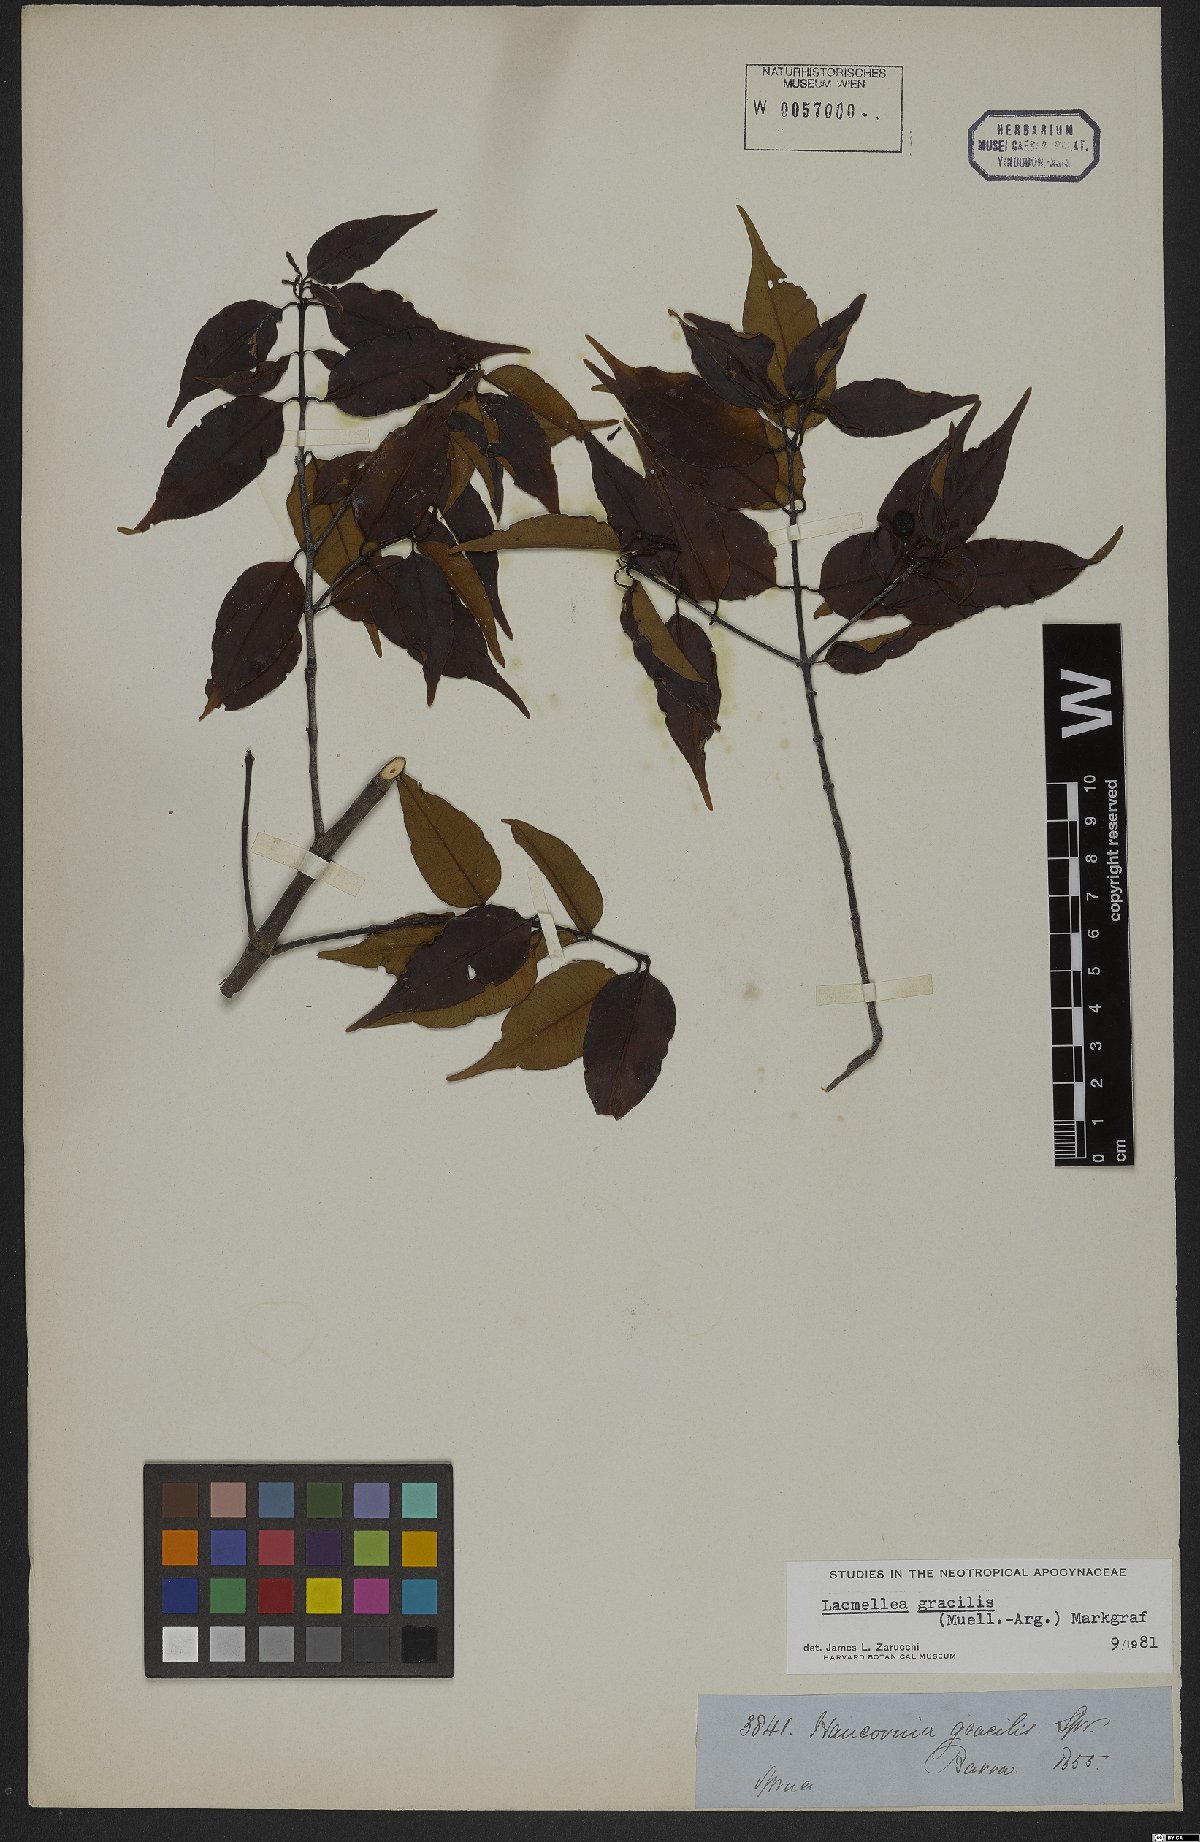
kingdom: Plantae
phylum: Tracheophyta
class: Magnoliopsida
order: Gentianales
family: Apocynaceae
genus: Lacmellea
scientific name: Lacmellea gracilis
